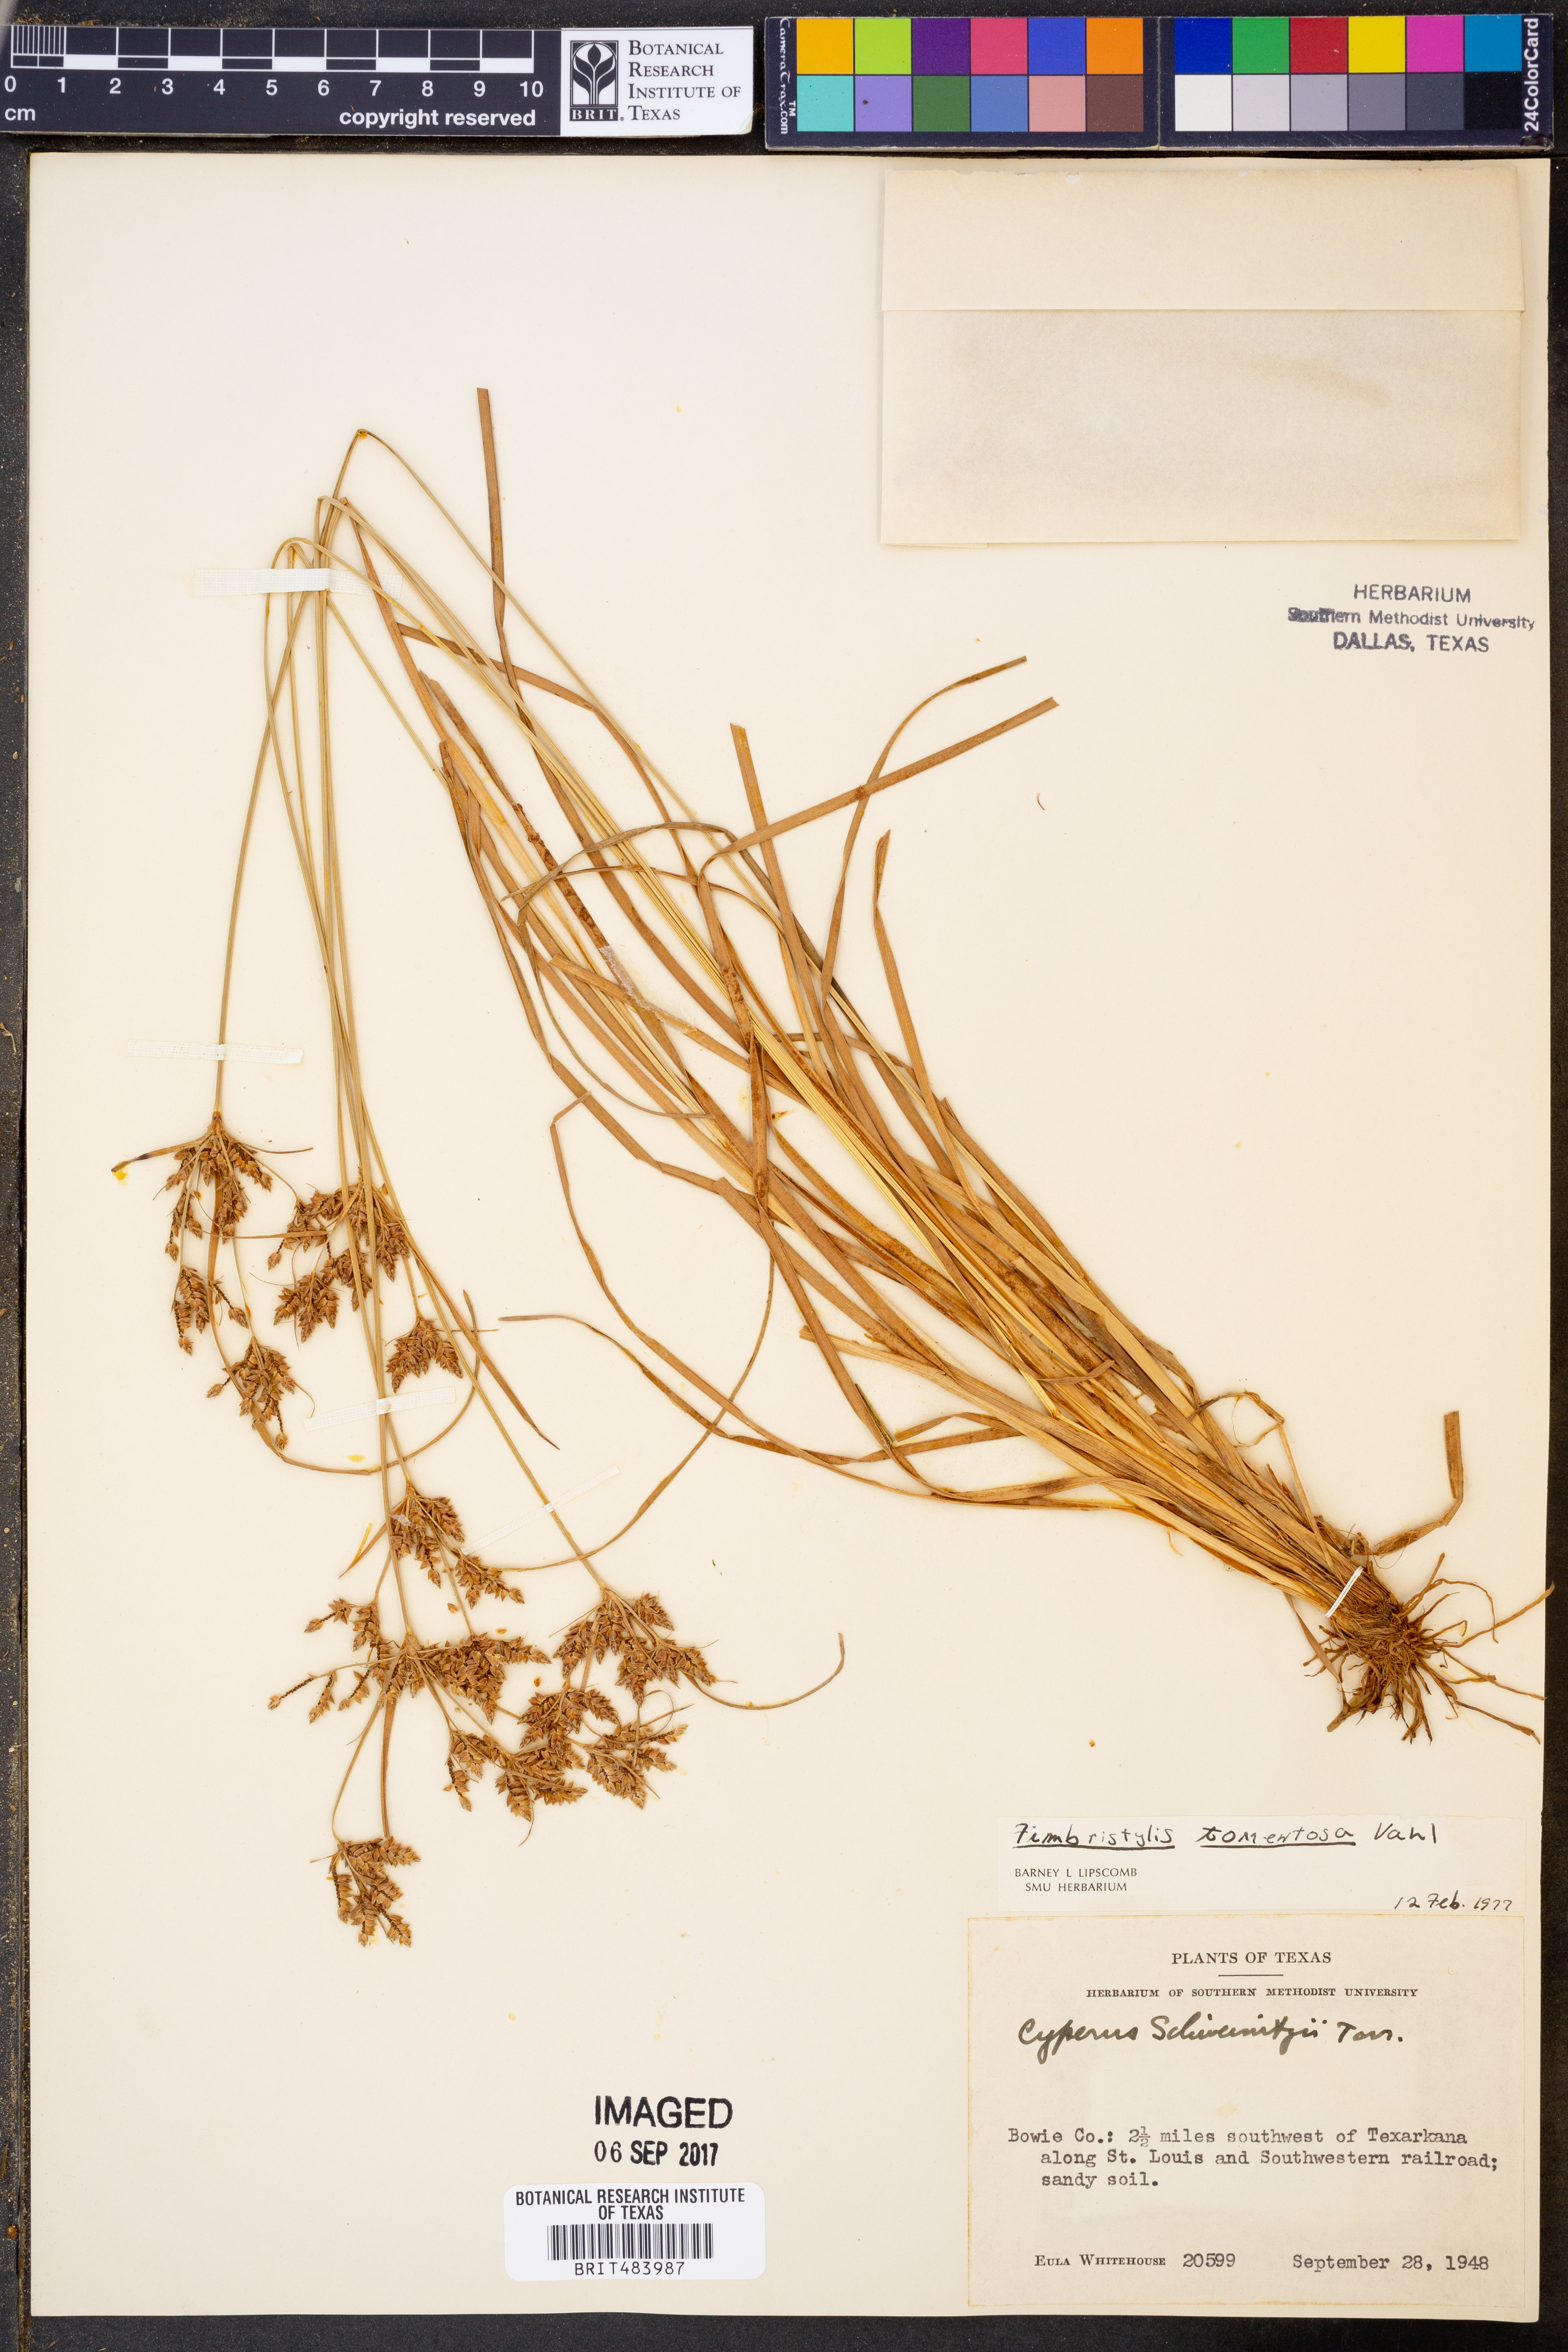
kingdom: Plantae
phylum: Tracheophyta
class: Liliopsida
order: Poales
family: Cyperaceae
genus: Fimbristylis
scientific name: Fimbristylis dichotoma
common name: Forked fimbry
